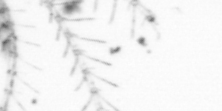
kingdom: Animalia
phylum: Chordata
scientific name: Chordata
